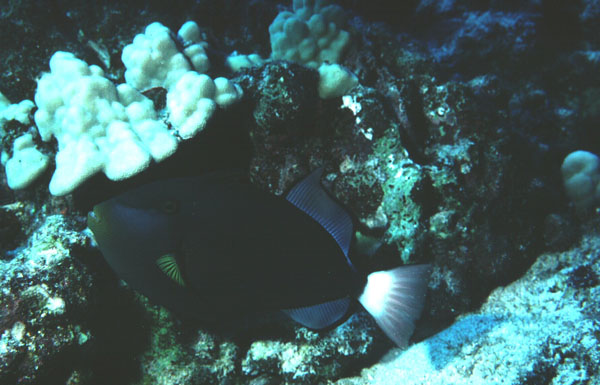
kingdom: Animalia
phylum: Chordata
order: Tetraodontiformes
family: Balistidae
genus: Melichthys
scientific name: Melichthys vidua
